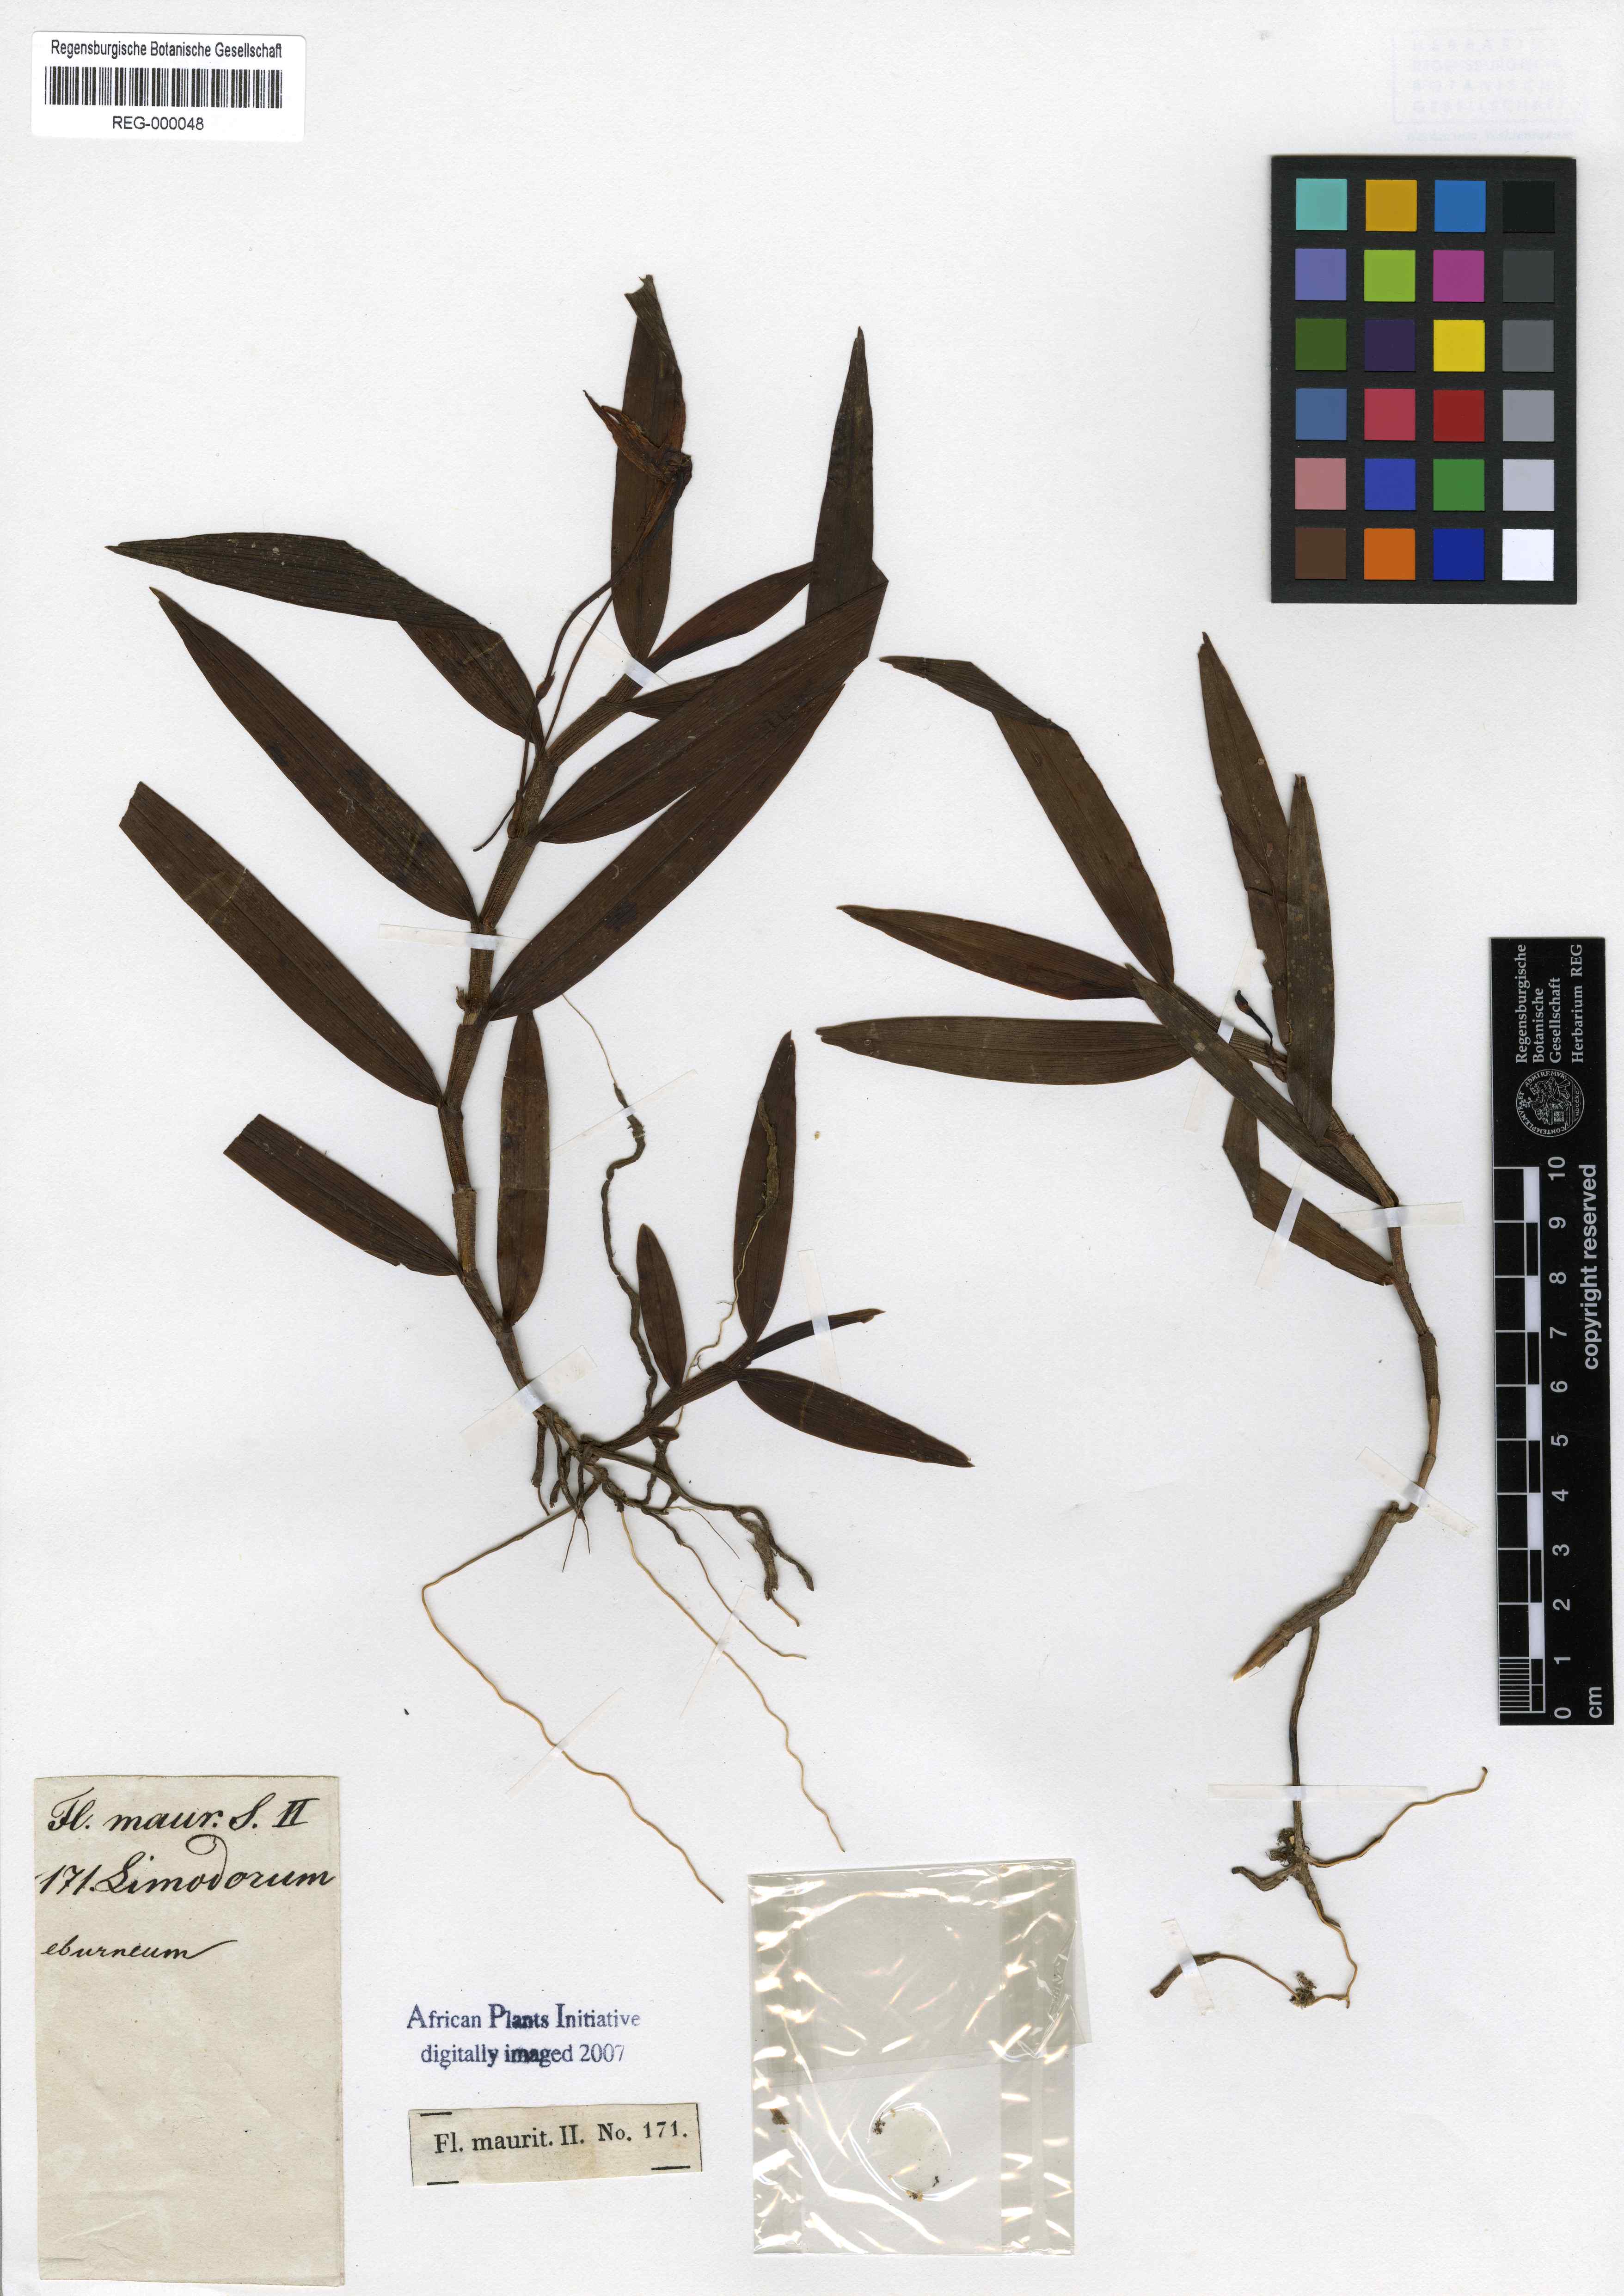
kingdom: Plantae
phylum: Tracheophyta
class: Liliopsida
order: Asparagales
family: Orchidaceae
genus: Angraecum
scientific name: Angraecum eburneum
